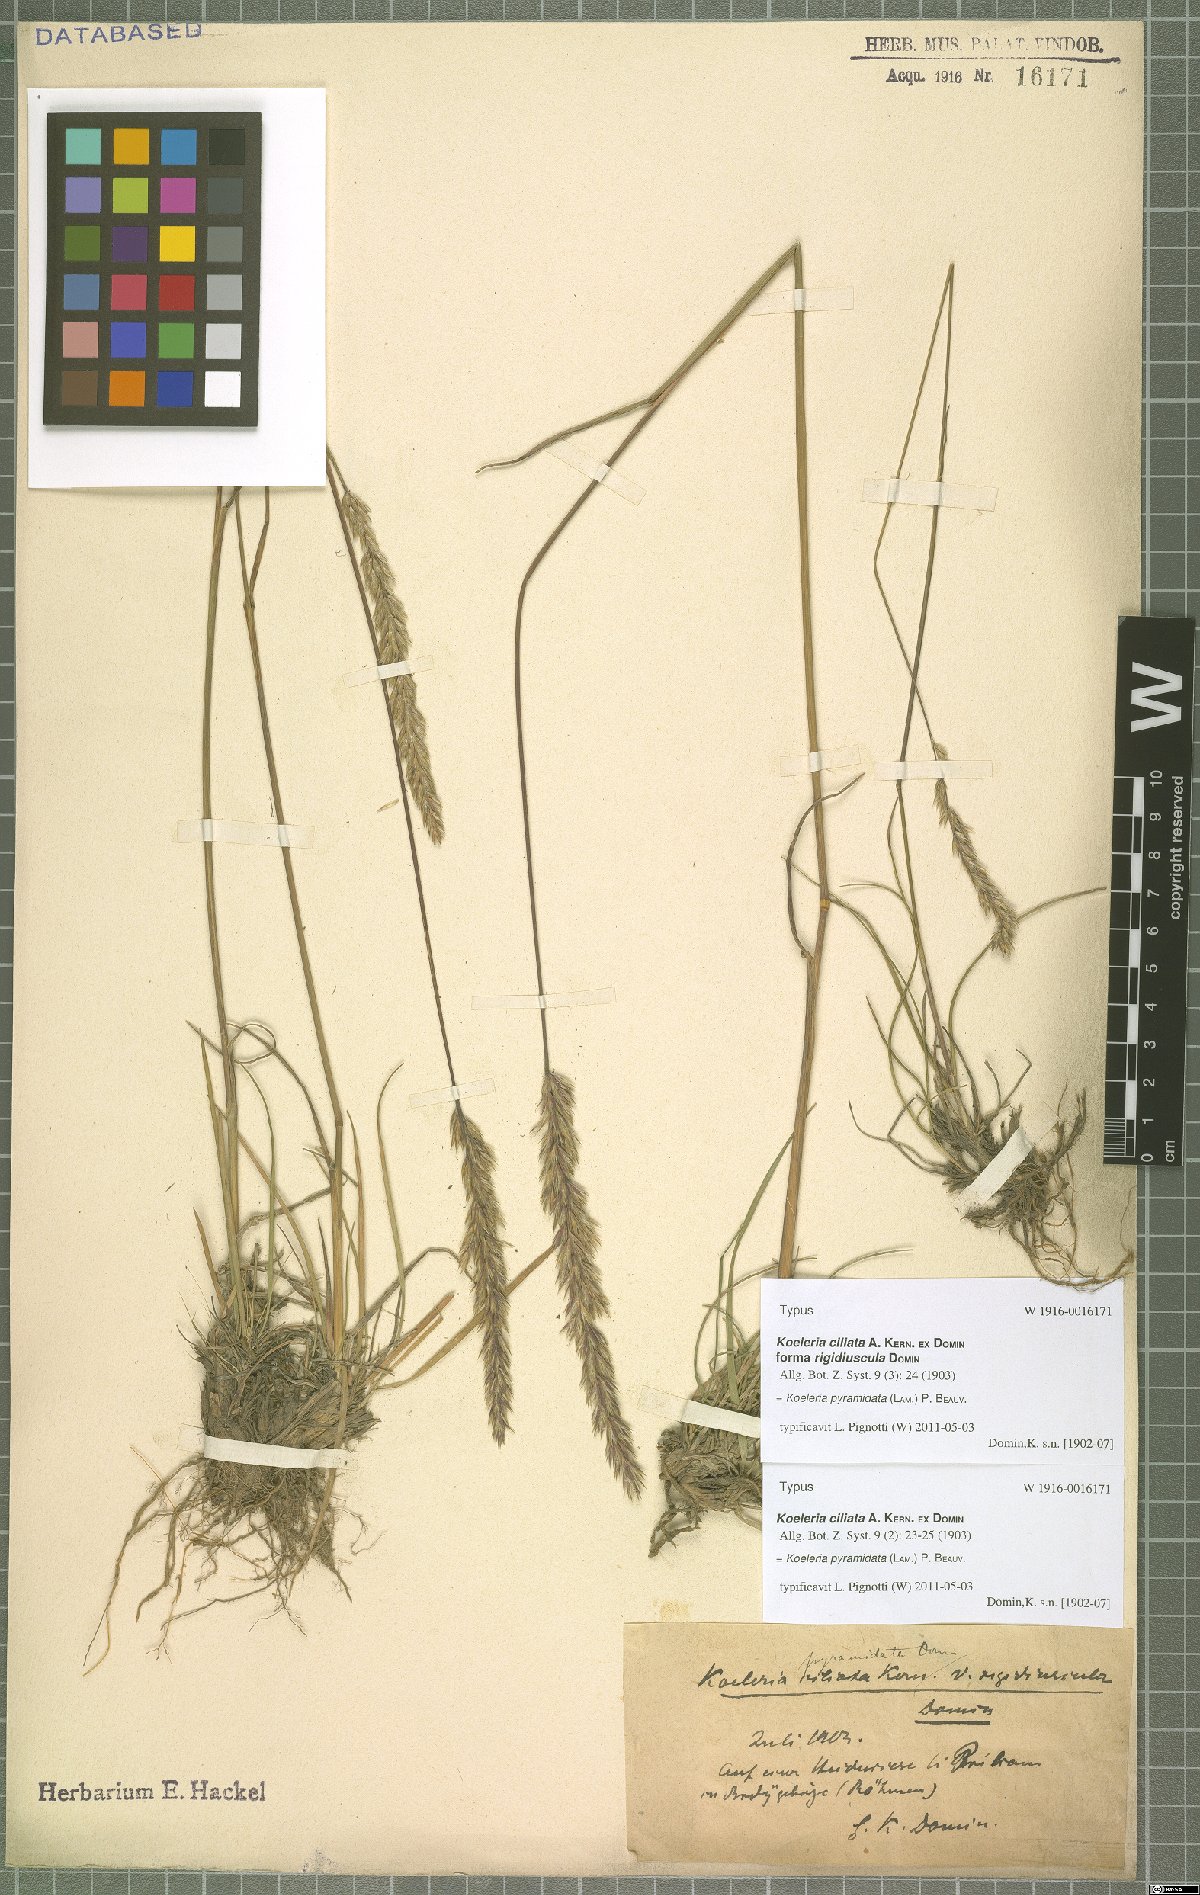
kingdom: Plantae
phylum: Tracheophyta
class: Liliopsida
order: Poales
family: Poaceae
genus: Koeleria
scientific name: Koeleria pyramidata
